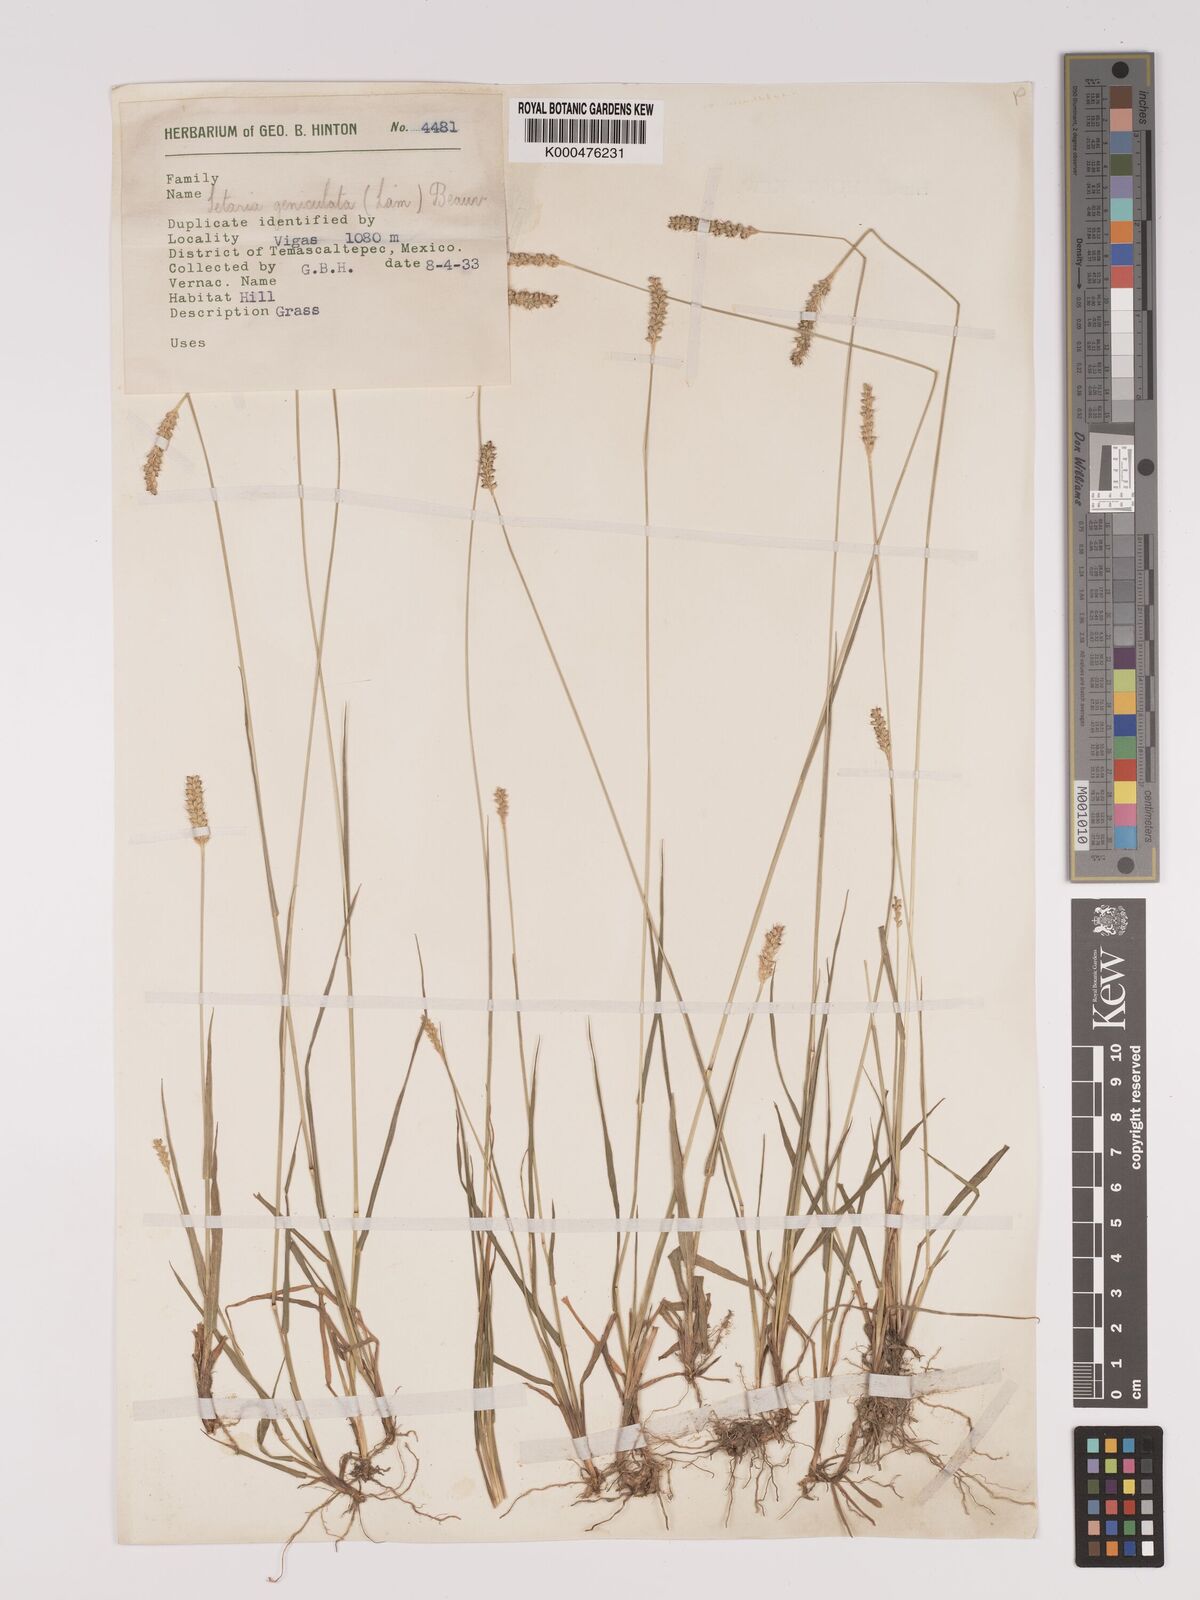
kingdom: Plantae
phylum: Tracheophyta
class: Liliopsida
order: Poales
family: Poaceae
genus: Setaria
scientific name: Setaria
